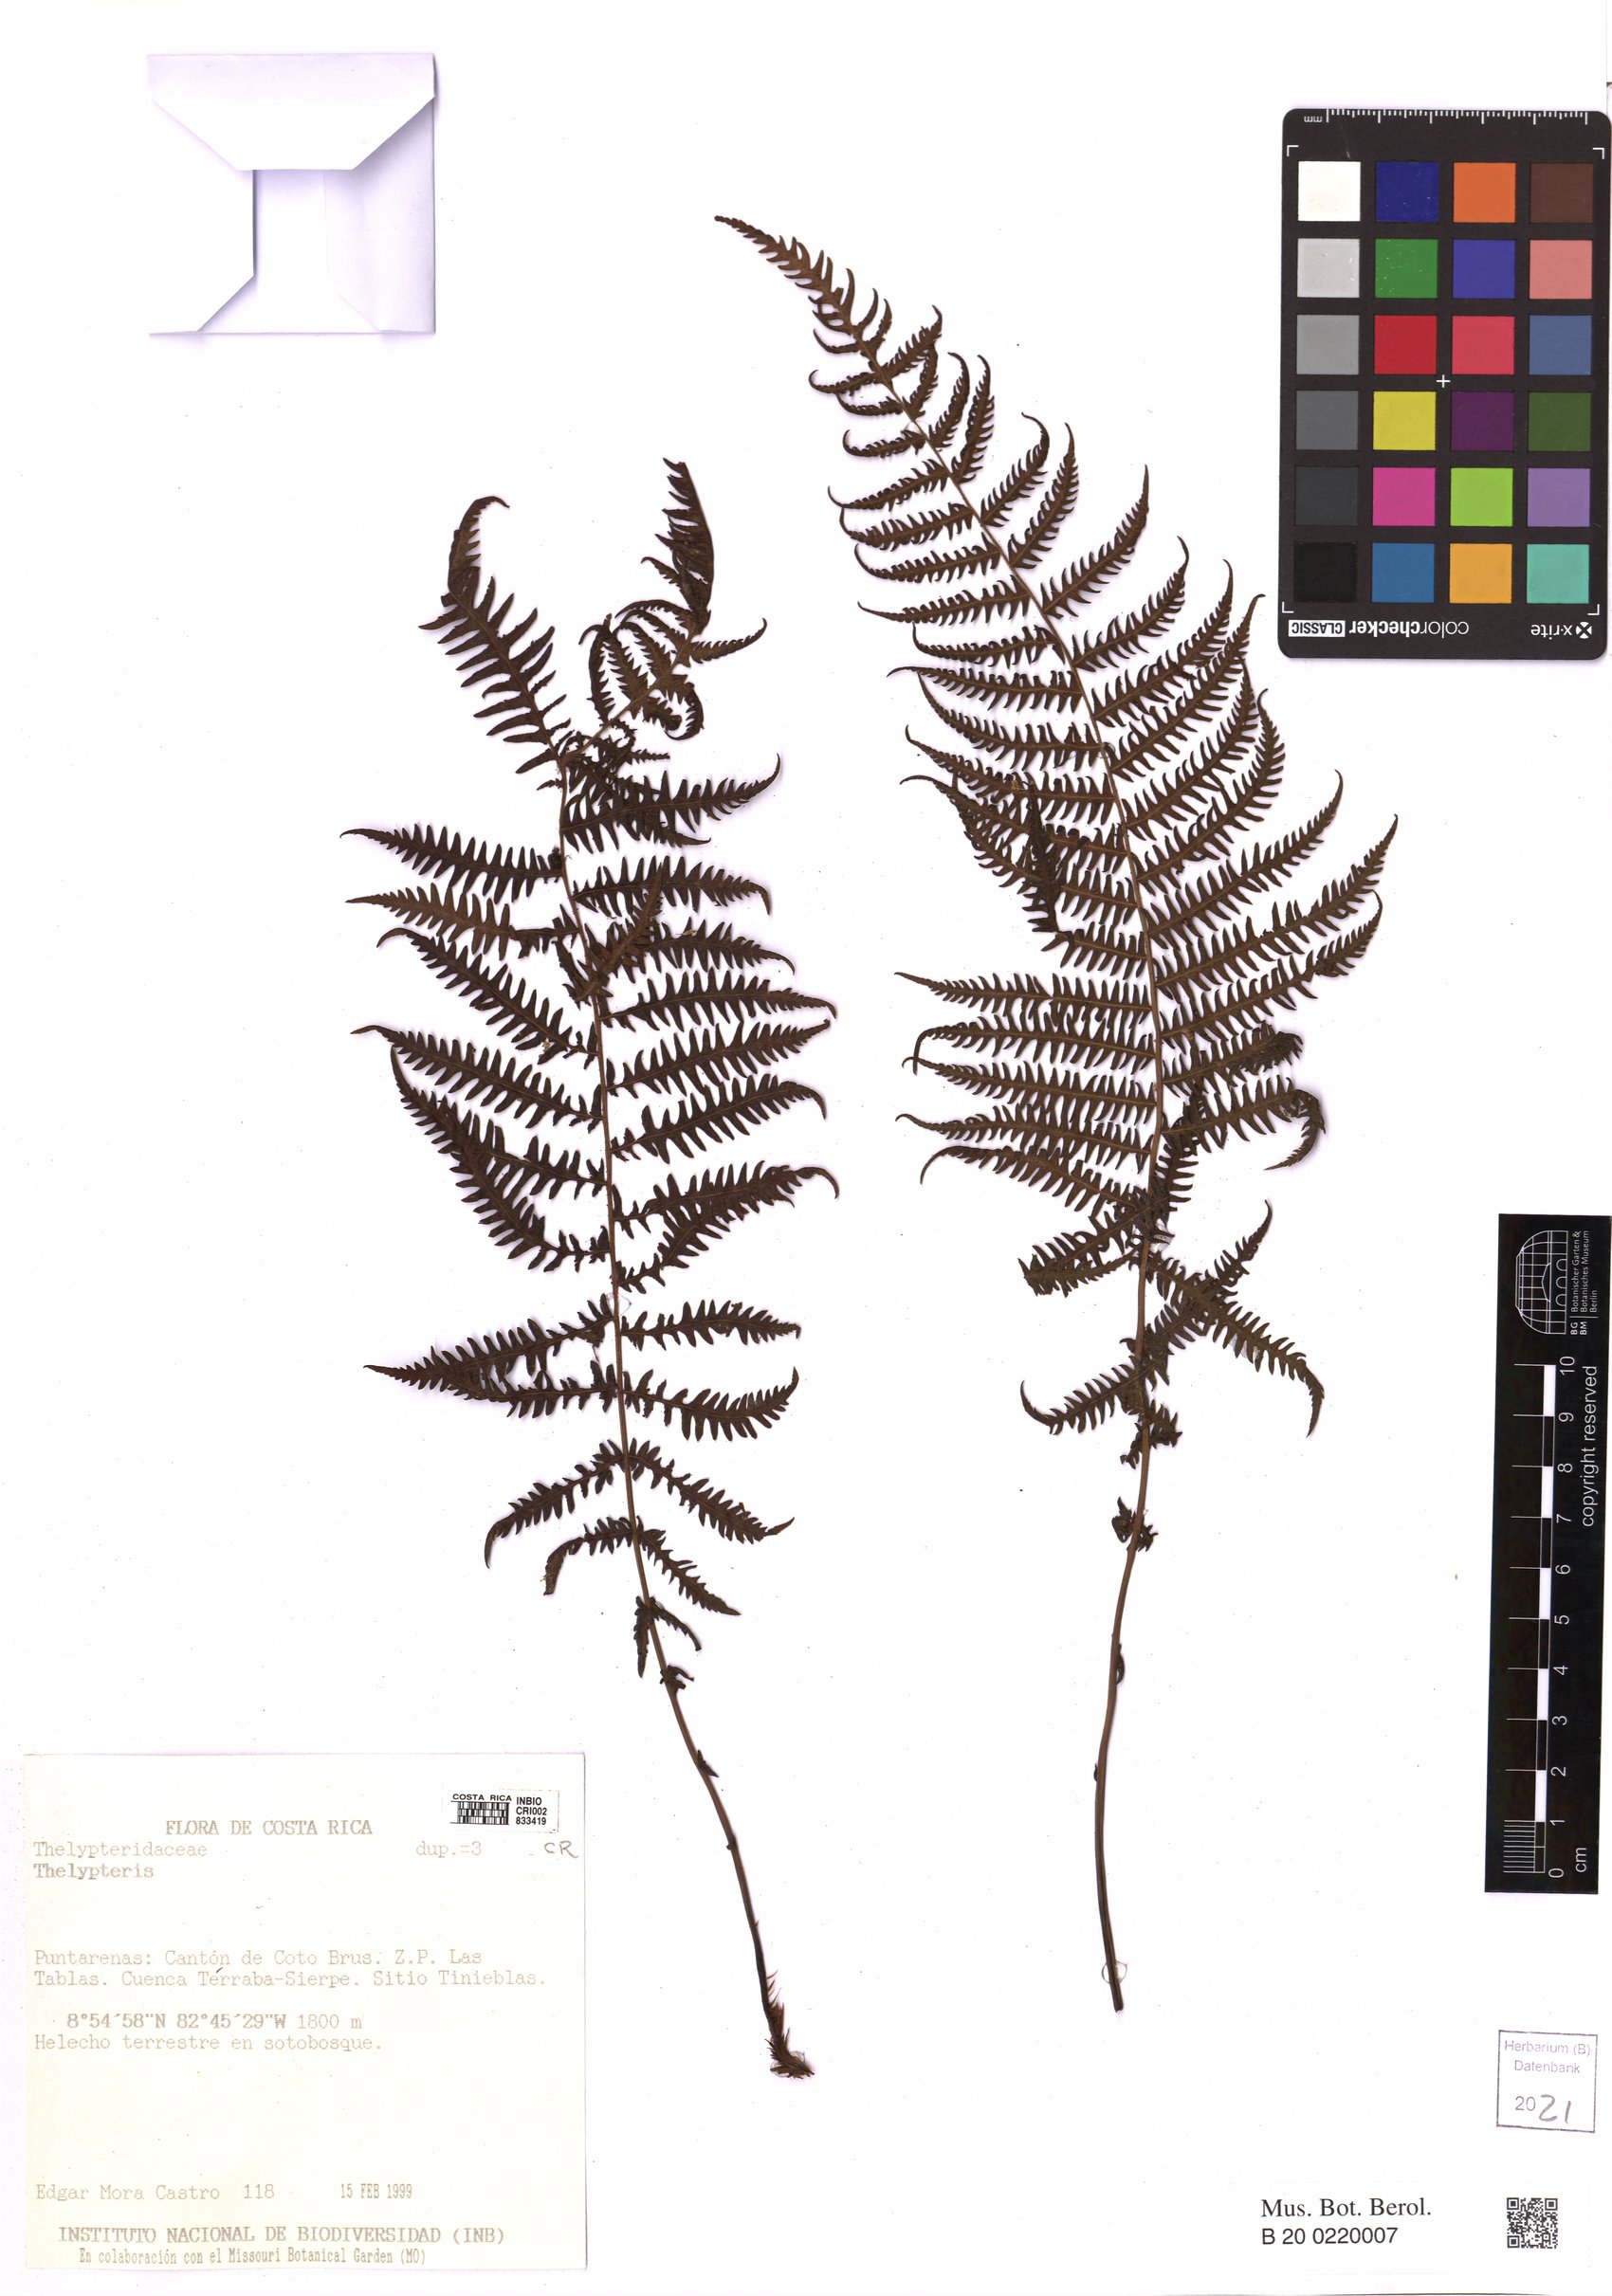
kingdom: Plantae
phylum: Tracheophyta
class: Polypodiopsida
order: Polypodiales
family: Thelypteridaceae
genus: Thelypteris
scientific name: Thelypteris
